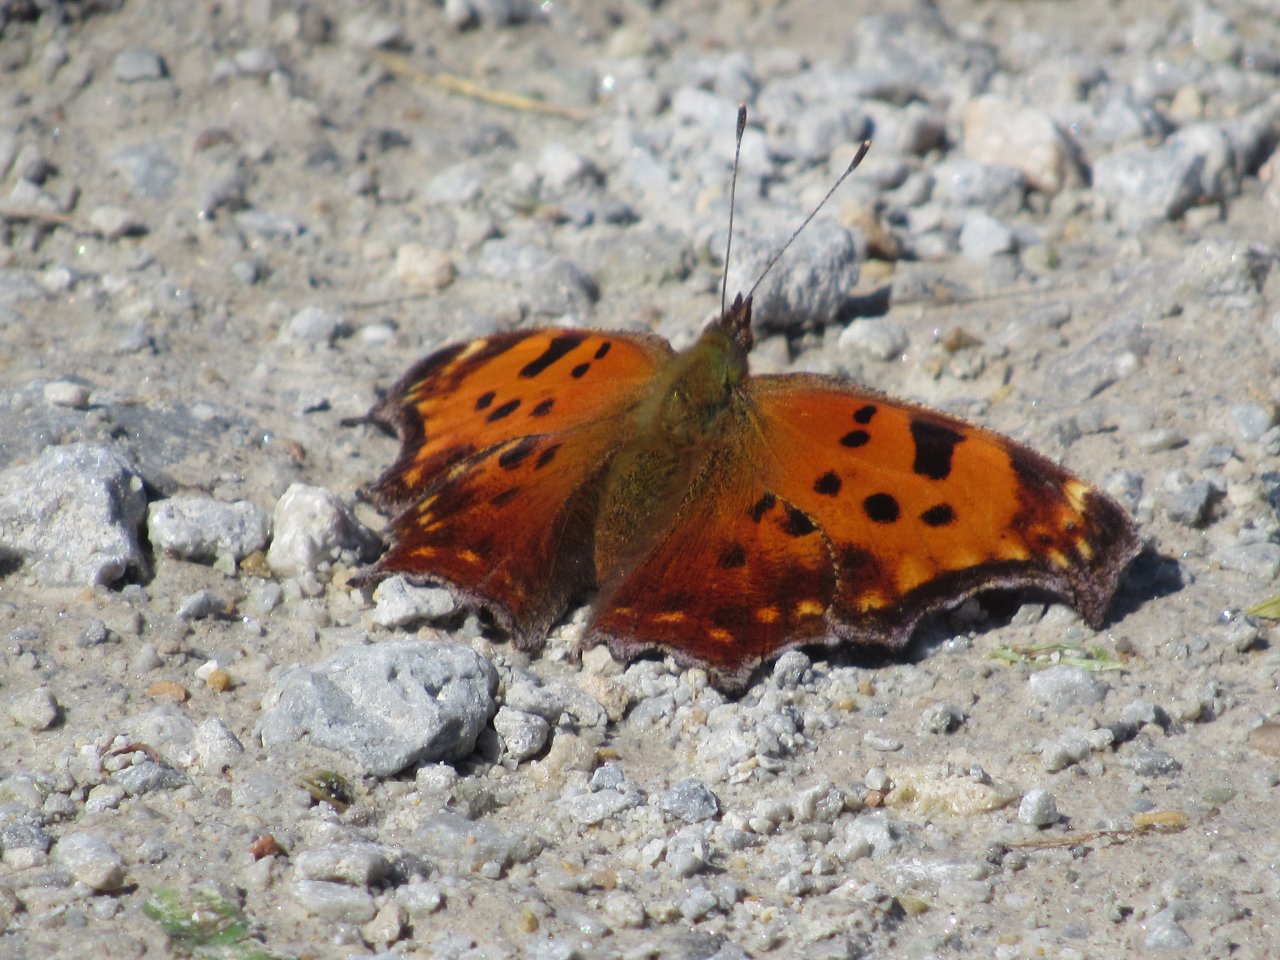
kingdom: Animalia
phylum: Arthropoda
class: Insecta
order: Lepidoptera
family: Nymphalidae
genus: Polygonia
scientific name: Polygonia comma
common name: Eastern Comma
